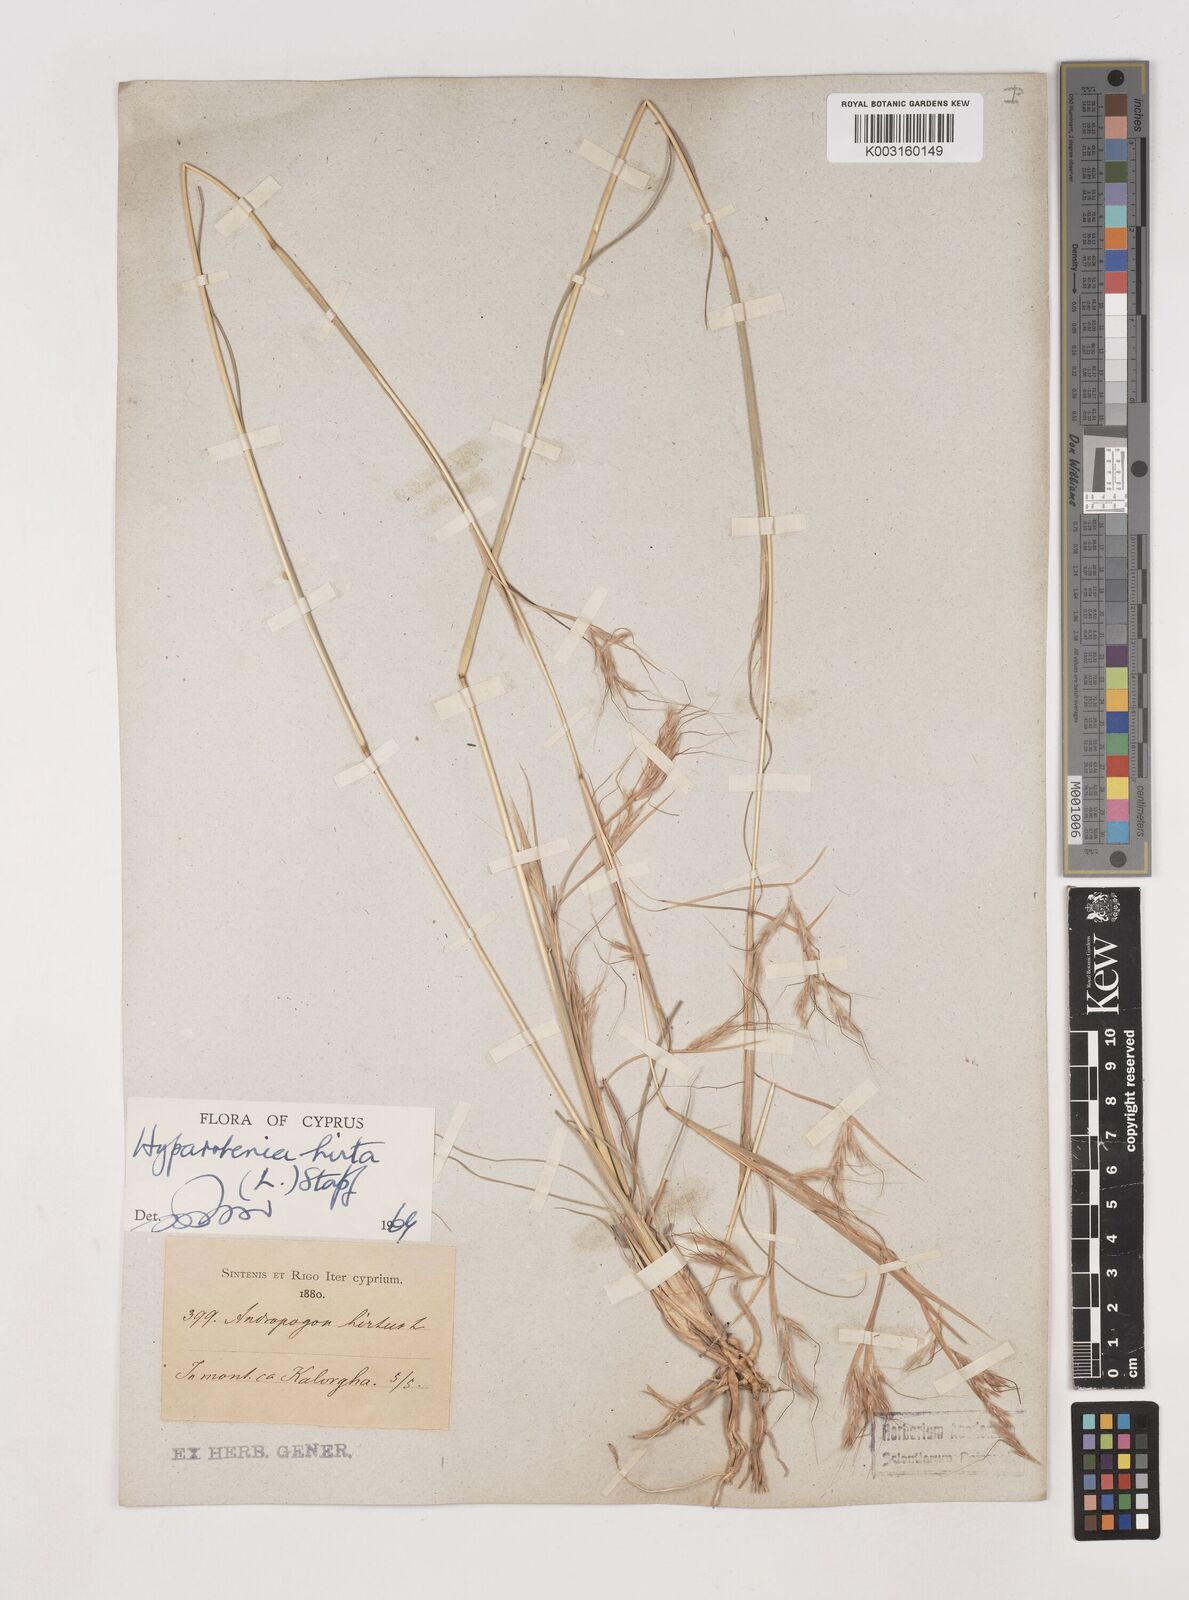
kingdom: Plantae
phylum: Tracheophyta
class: Liliopsida
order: Poales
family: Poaceae
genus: Hyparrhenia
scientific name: Hyparrhenia hirta
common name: Thatching grass
